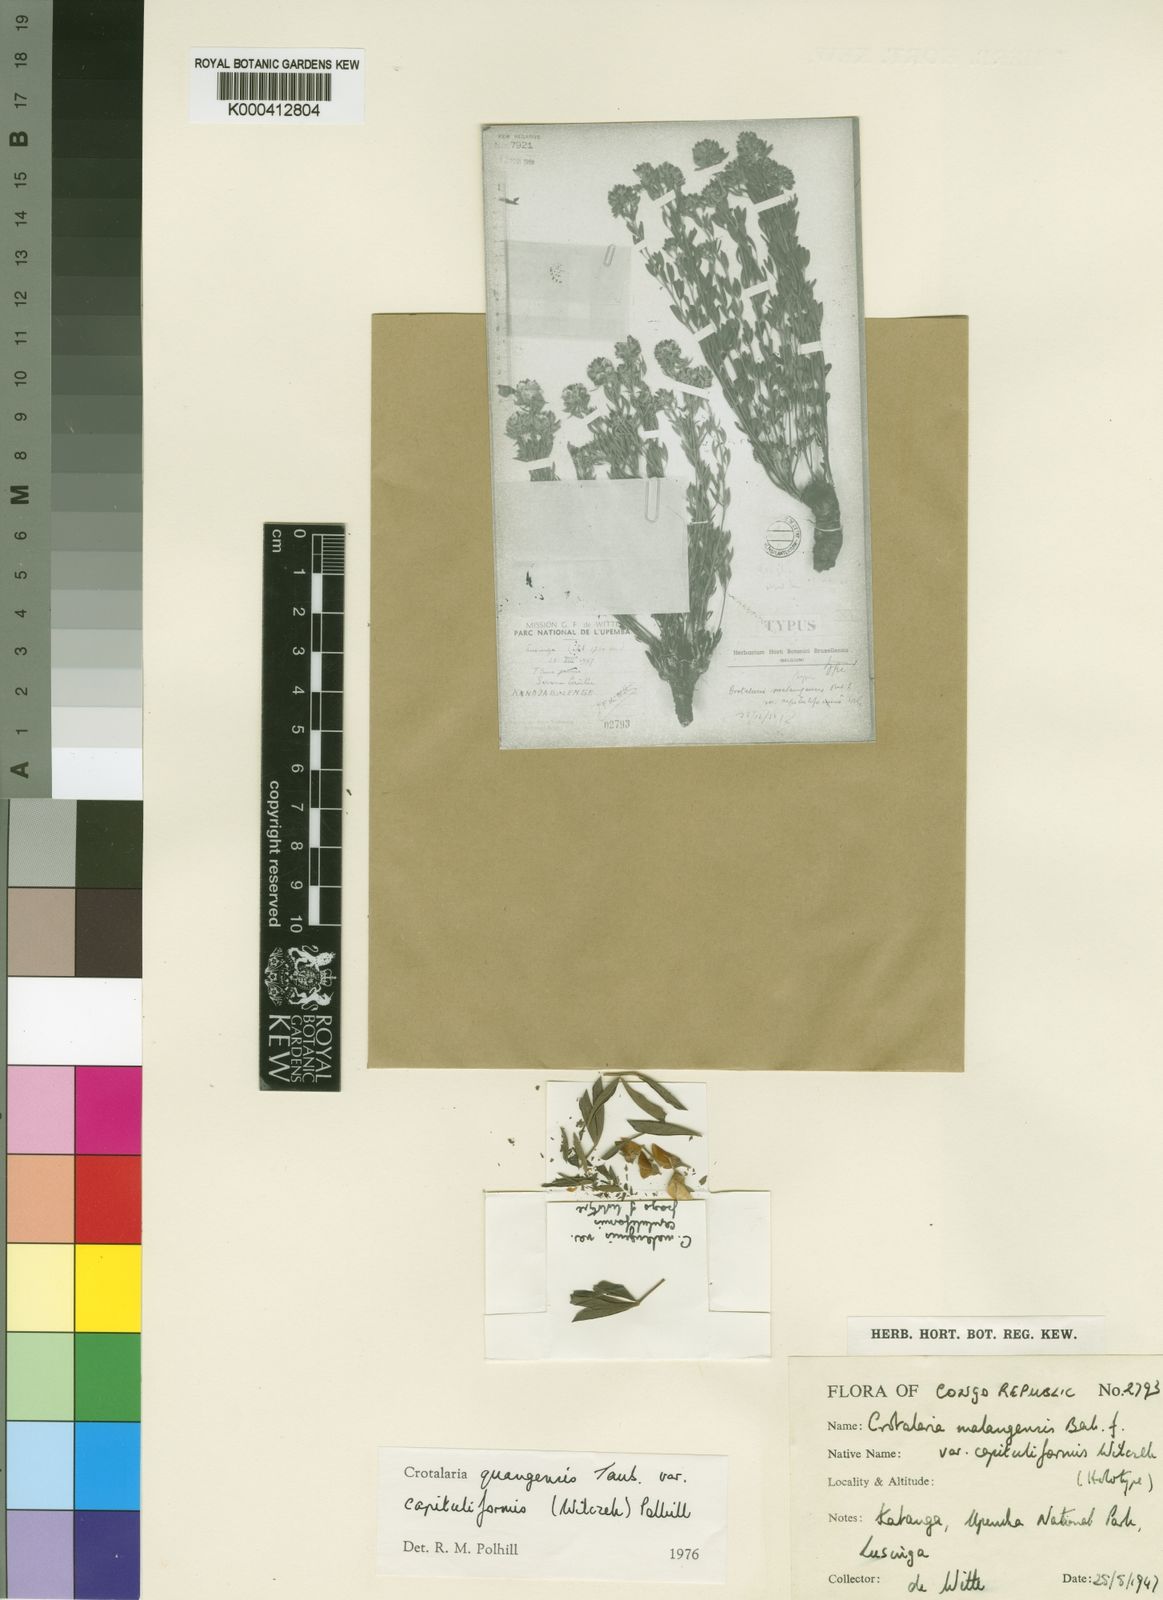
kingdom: Plantae
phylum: Tracheophyta
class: Magnoliopsida
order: Fabales
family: Fabaceae
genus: Crotalaria
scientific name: Crotalaria quangensis
